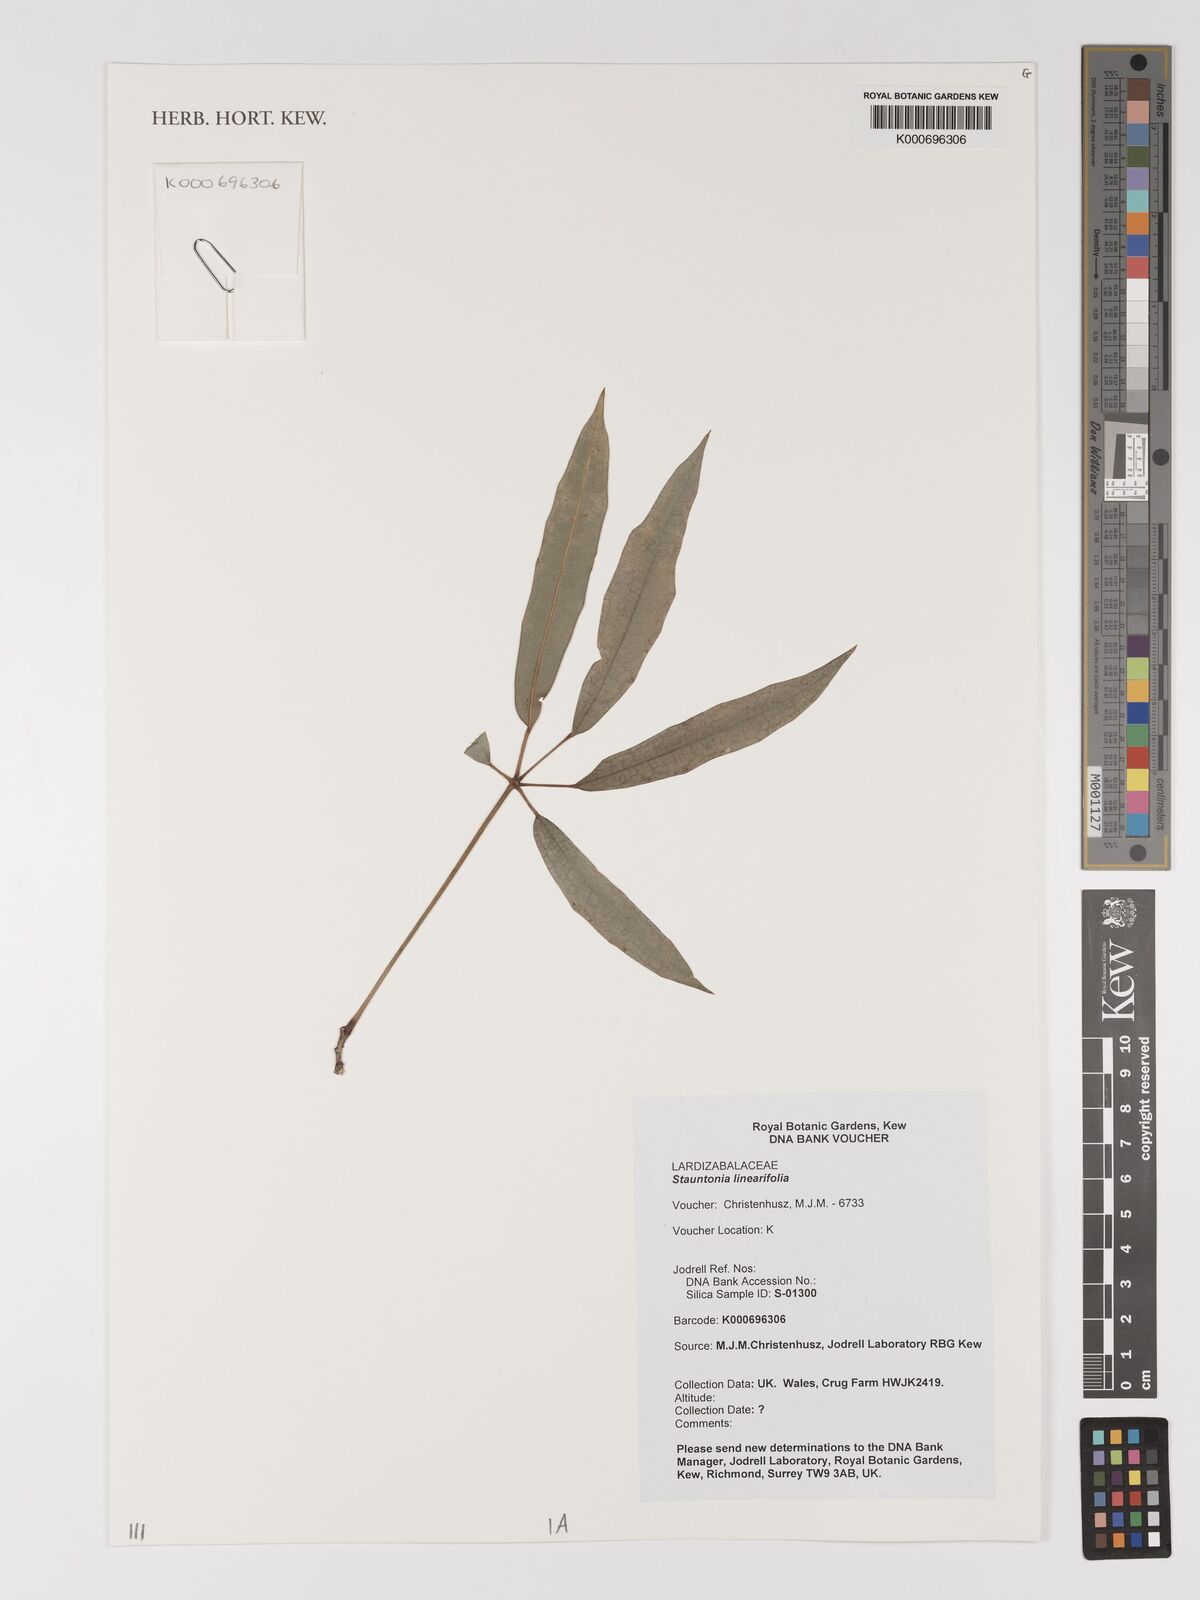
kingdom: Plantae
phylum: Tracheophyta
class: Magnoliopsida
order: Ranunculales
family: Lardizabalaceae
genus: Stauntonia
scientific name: Stauntonia linearifolia
